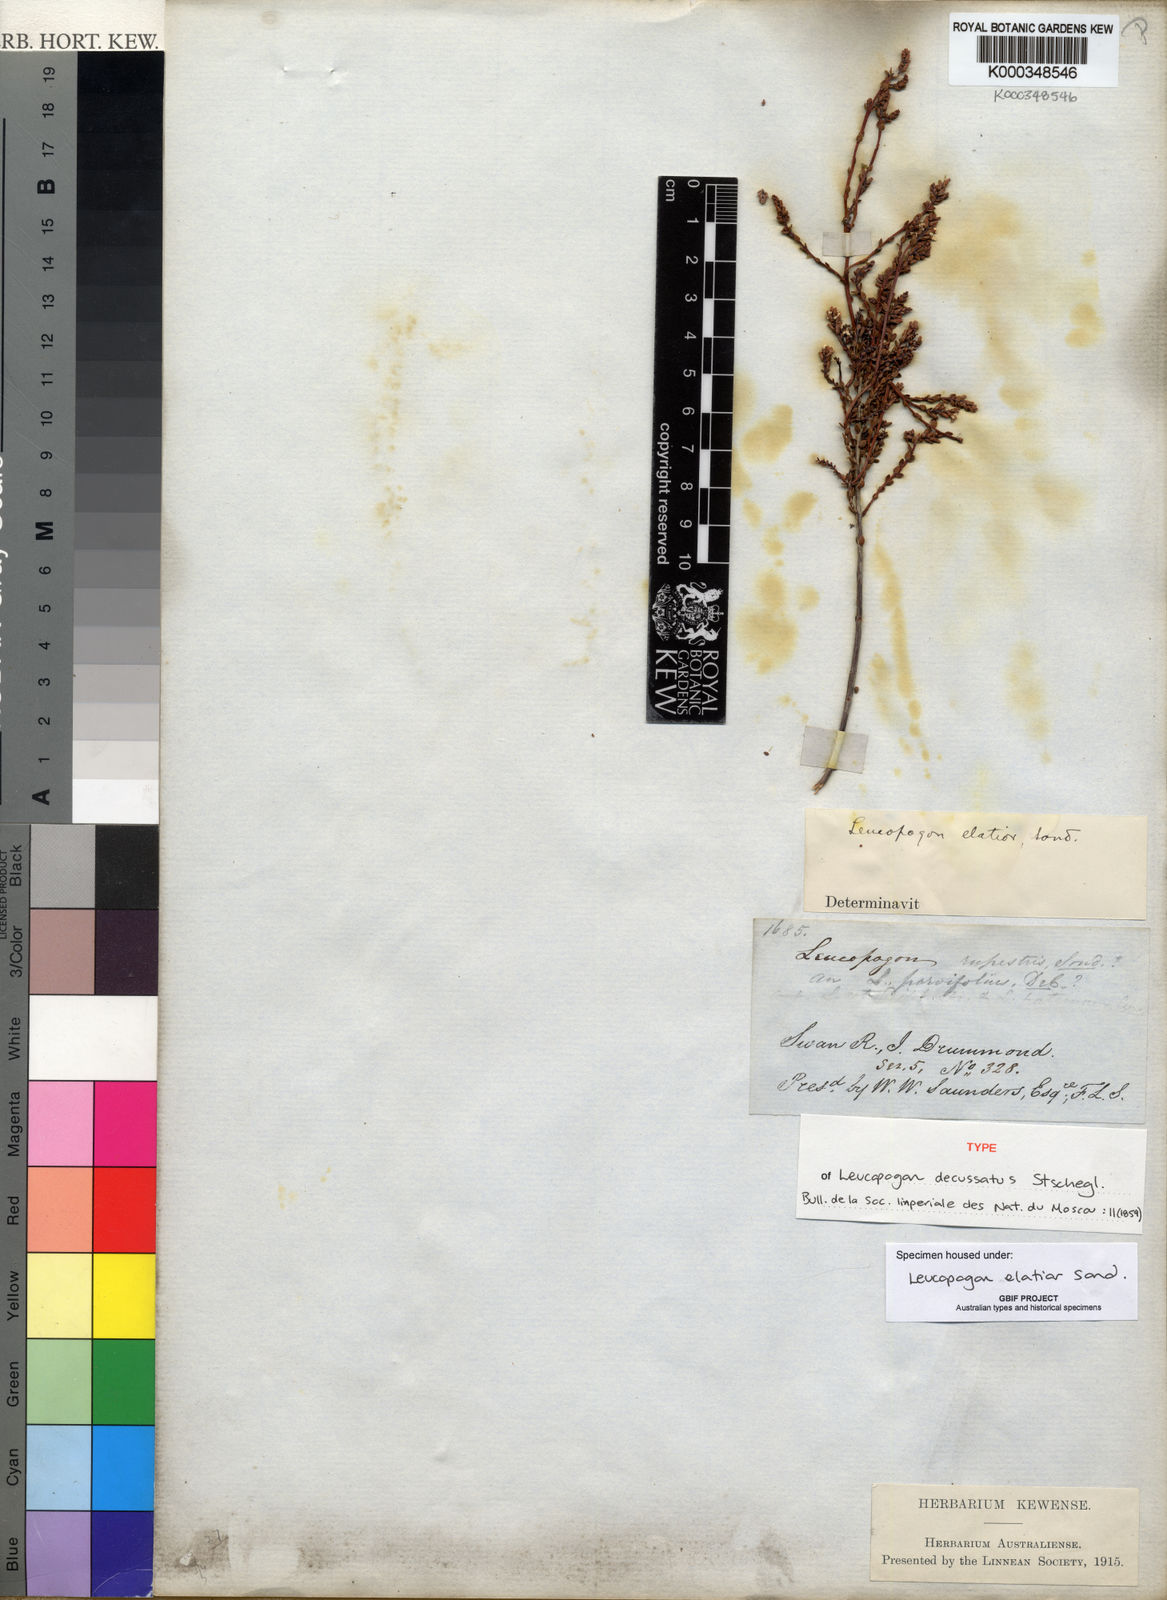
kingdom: Plantae
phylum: Tracheophyta
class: Magnoliopsida
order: Ericales
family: Ericaceae
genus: Leucopogon
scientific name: Leucopogon elatior
